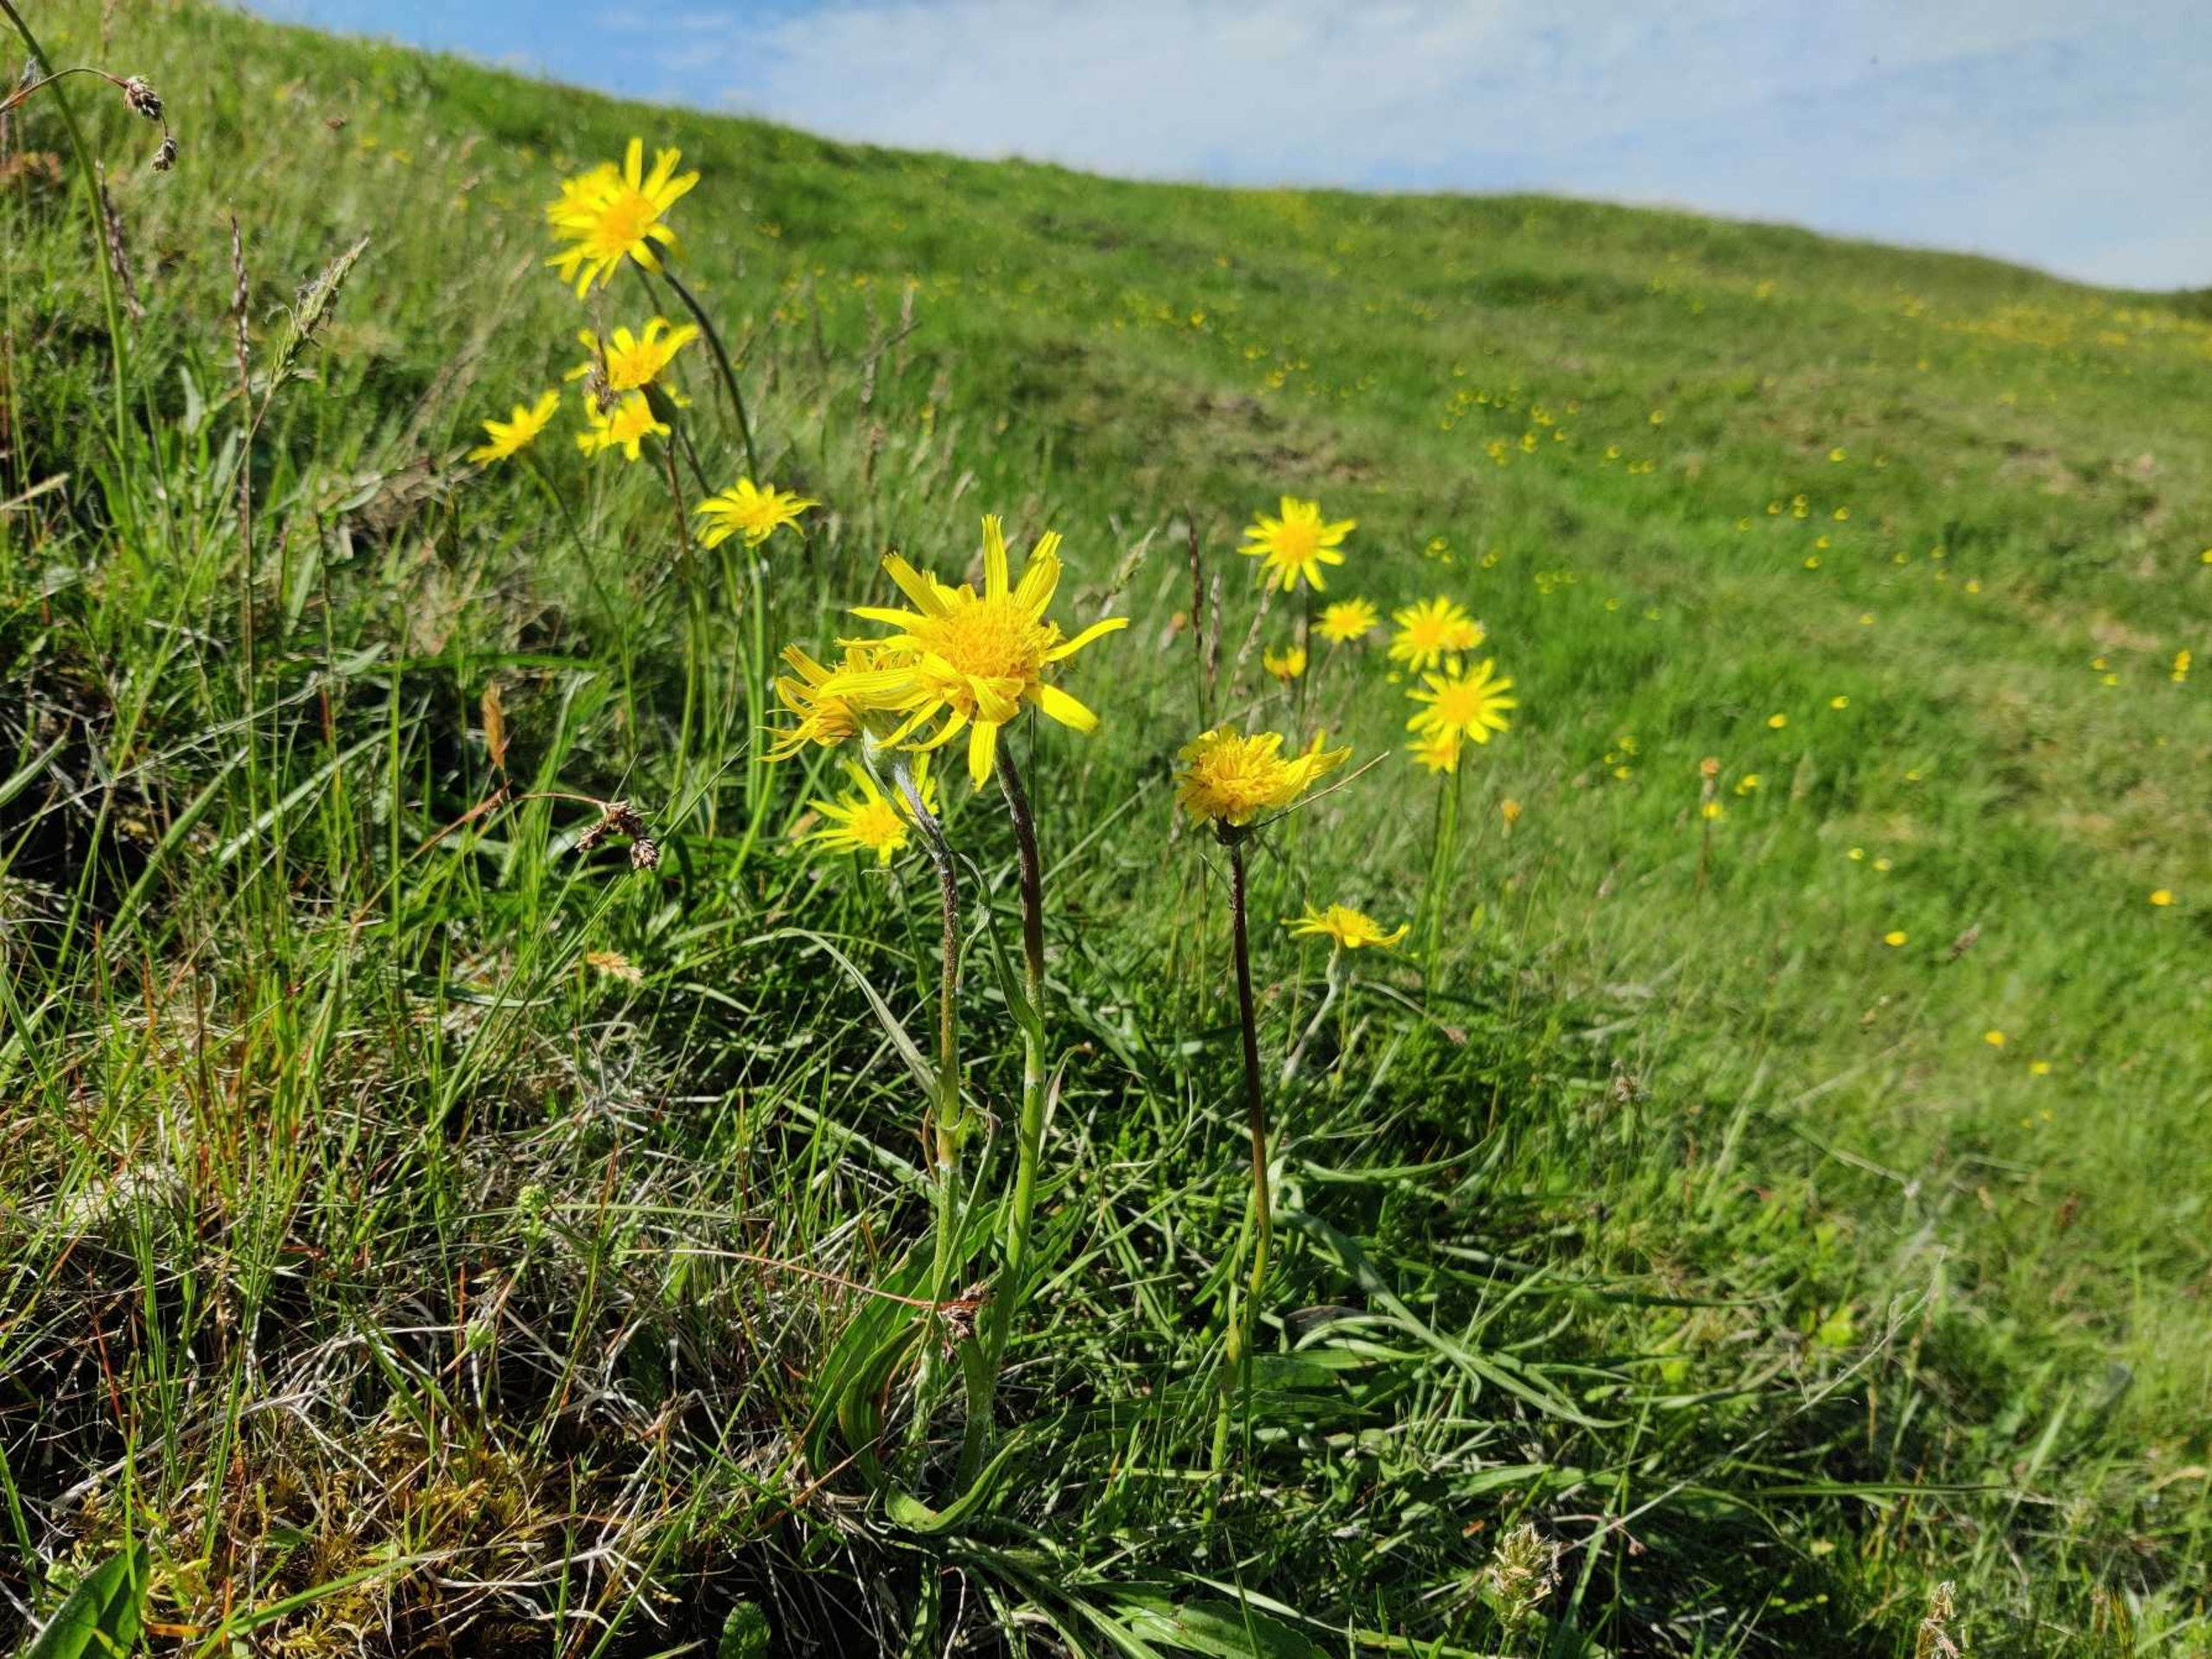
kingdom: Plantae
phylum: Tracheophyta
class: Magnoliopsida
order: Asterales
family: Asteraceae
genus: Scorzonera
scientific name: Scorzonera humilis
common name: Lav skorsoner
